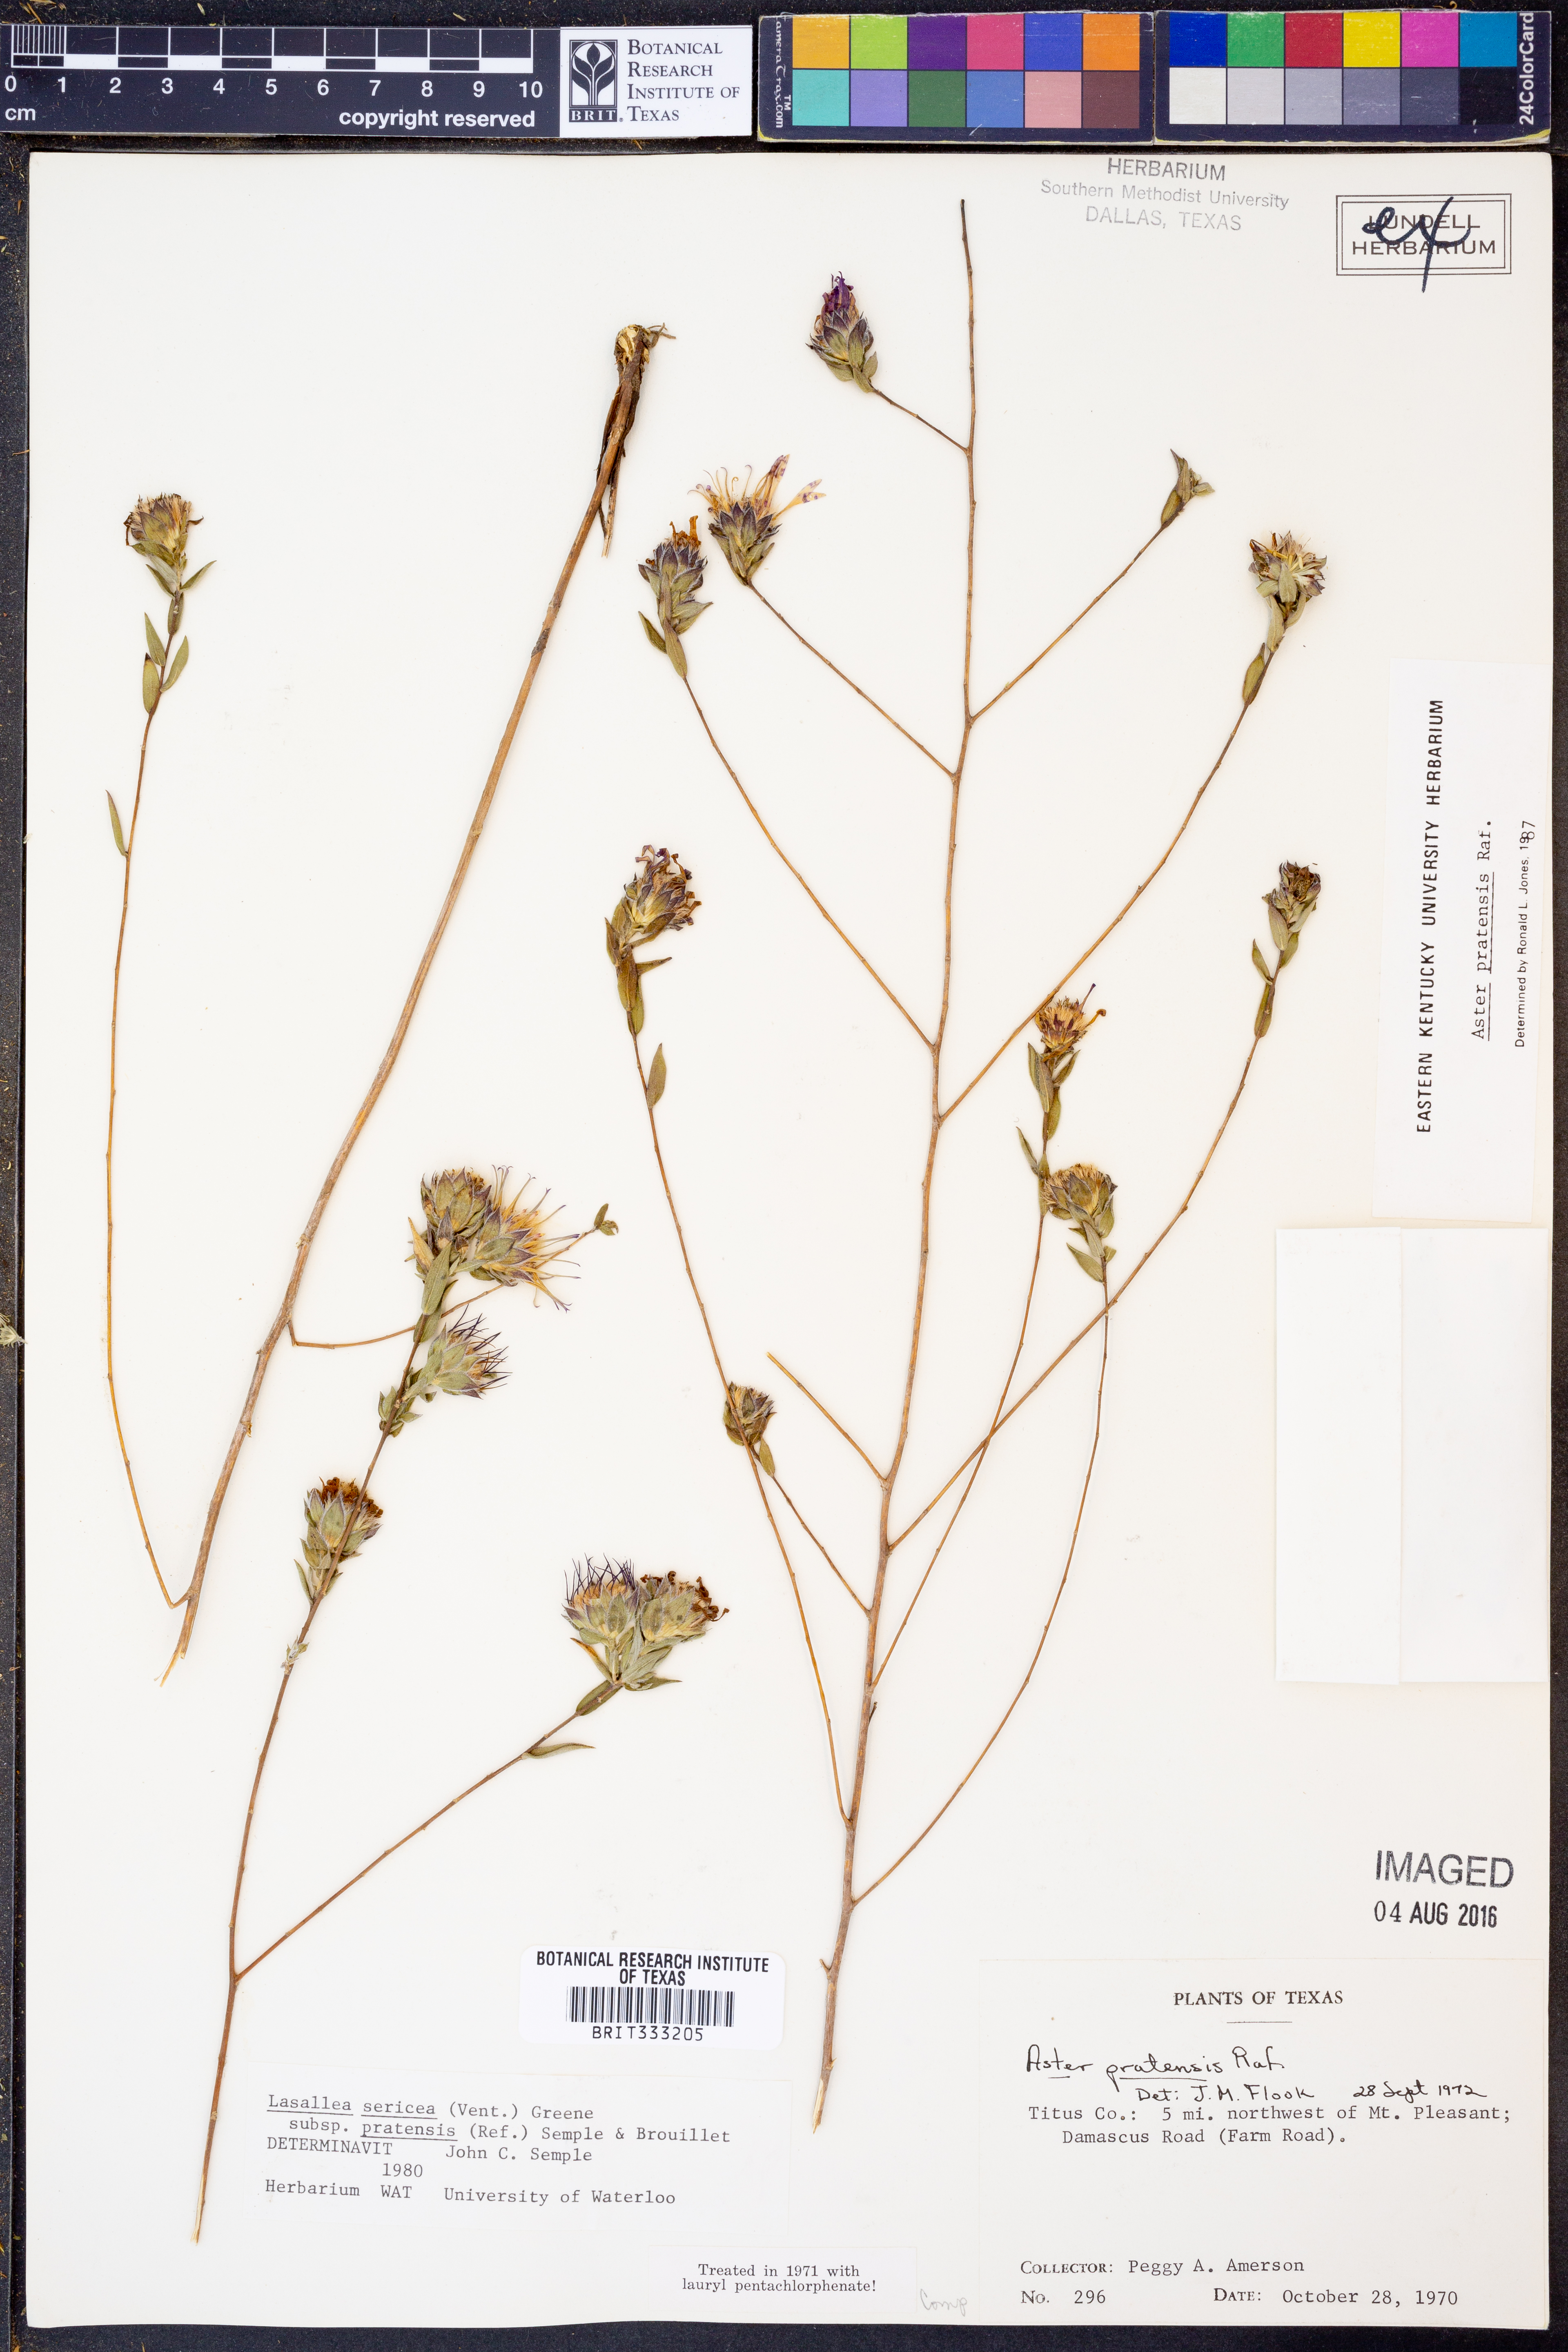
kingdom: Plantae
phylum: Tracheophyta
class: Magnoliopsida
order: Asterales
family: Asteraceae
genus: Symphyotrichum
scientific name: Symphyotrichum pratense
